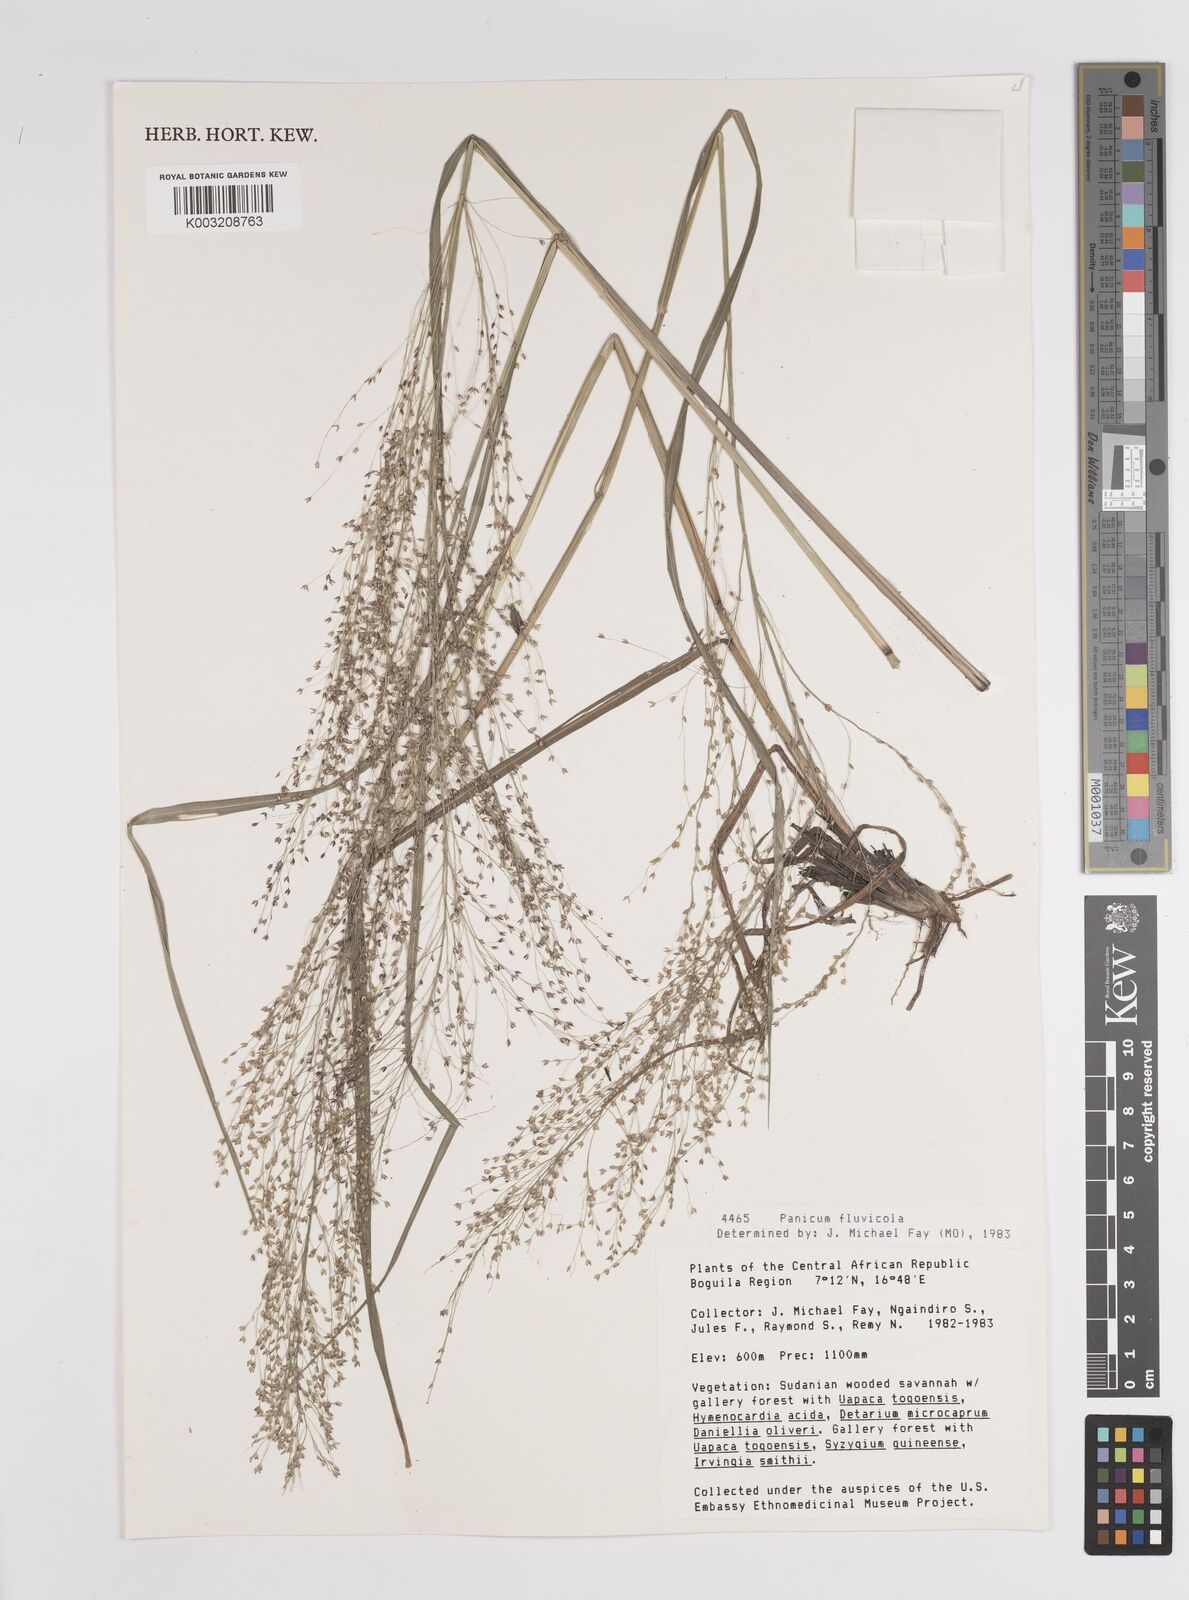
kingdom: Plantae
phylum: Tracheophyta
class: Liliopsida
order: Poales
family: Poaceae
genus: Panicum
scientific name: Panicum fluviicola
